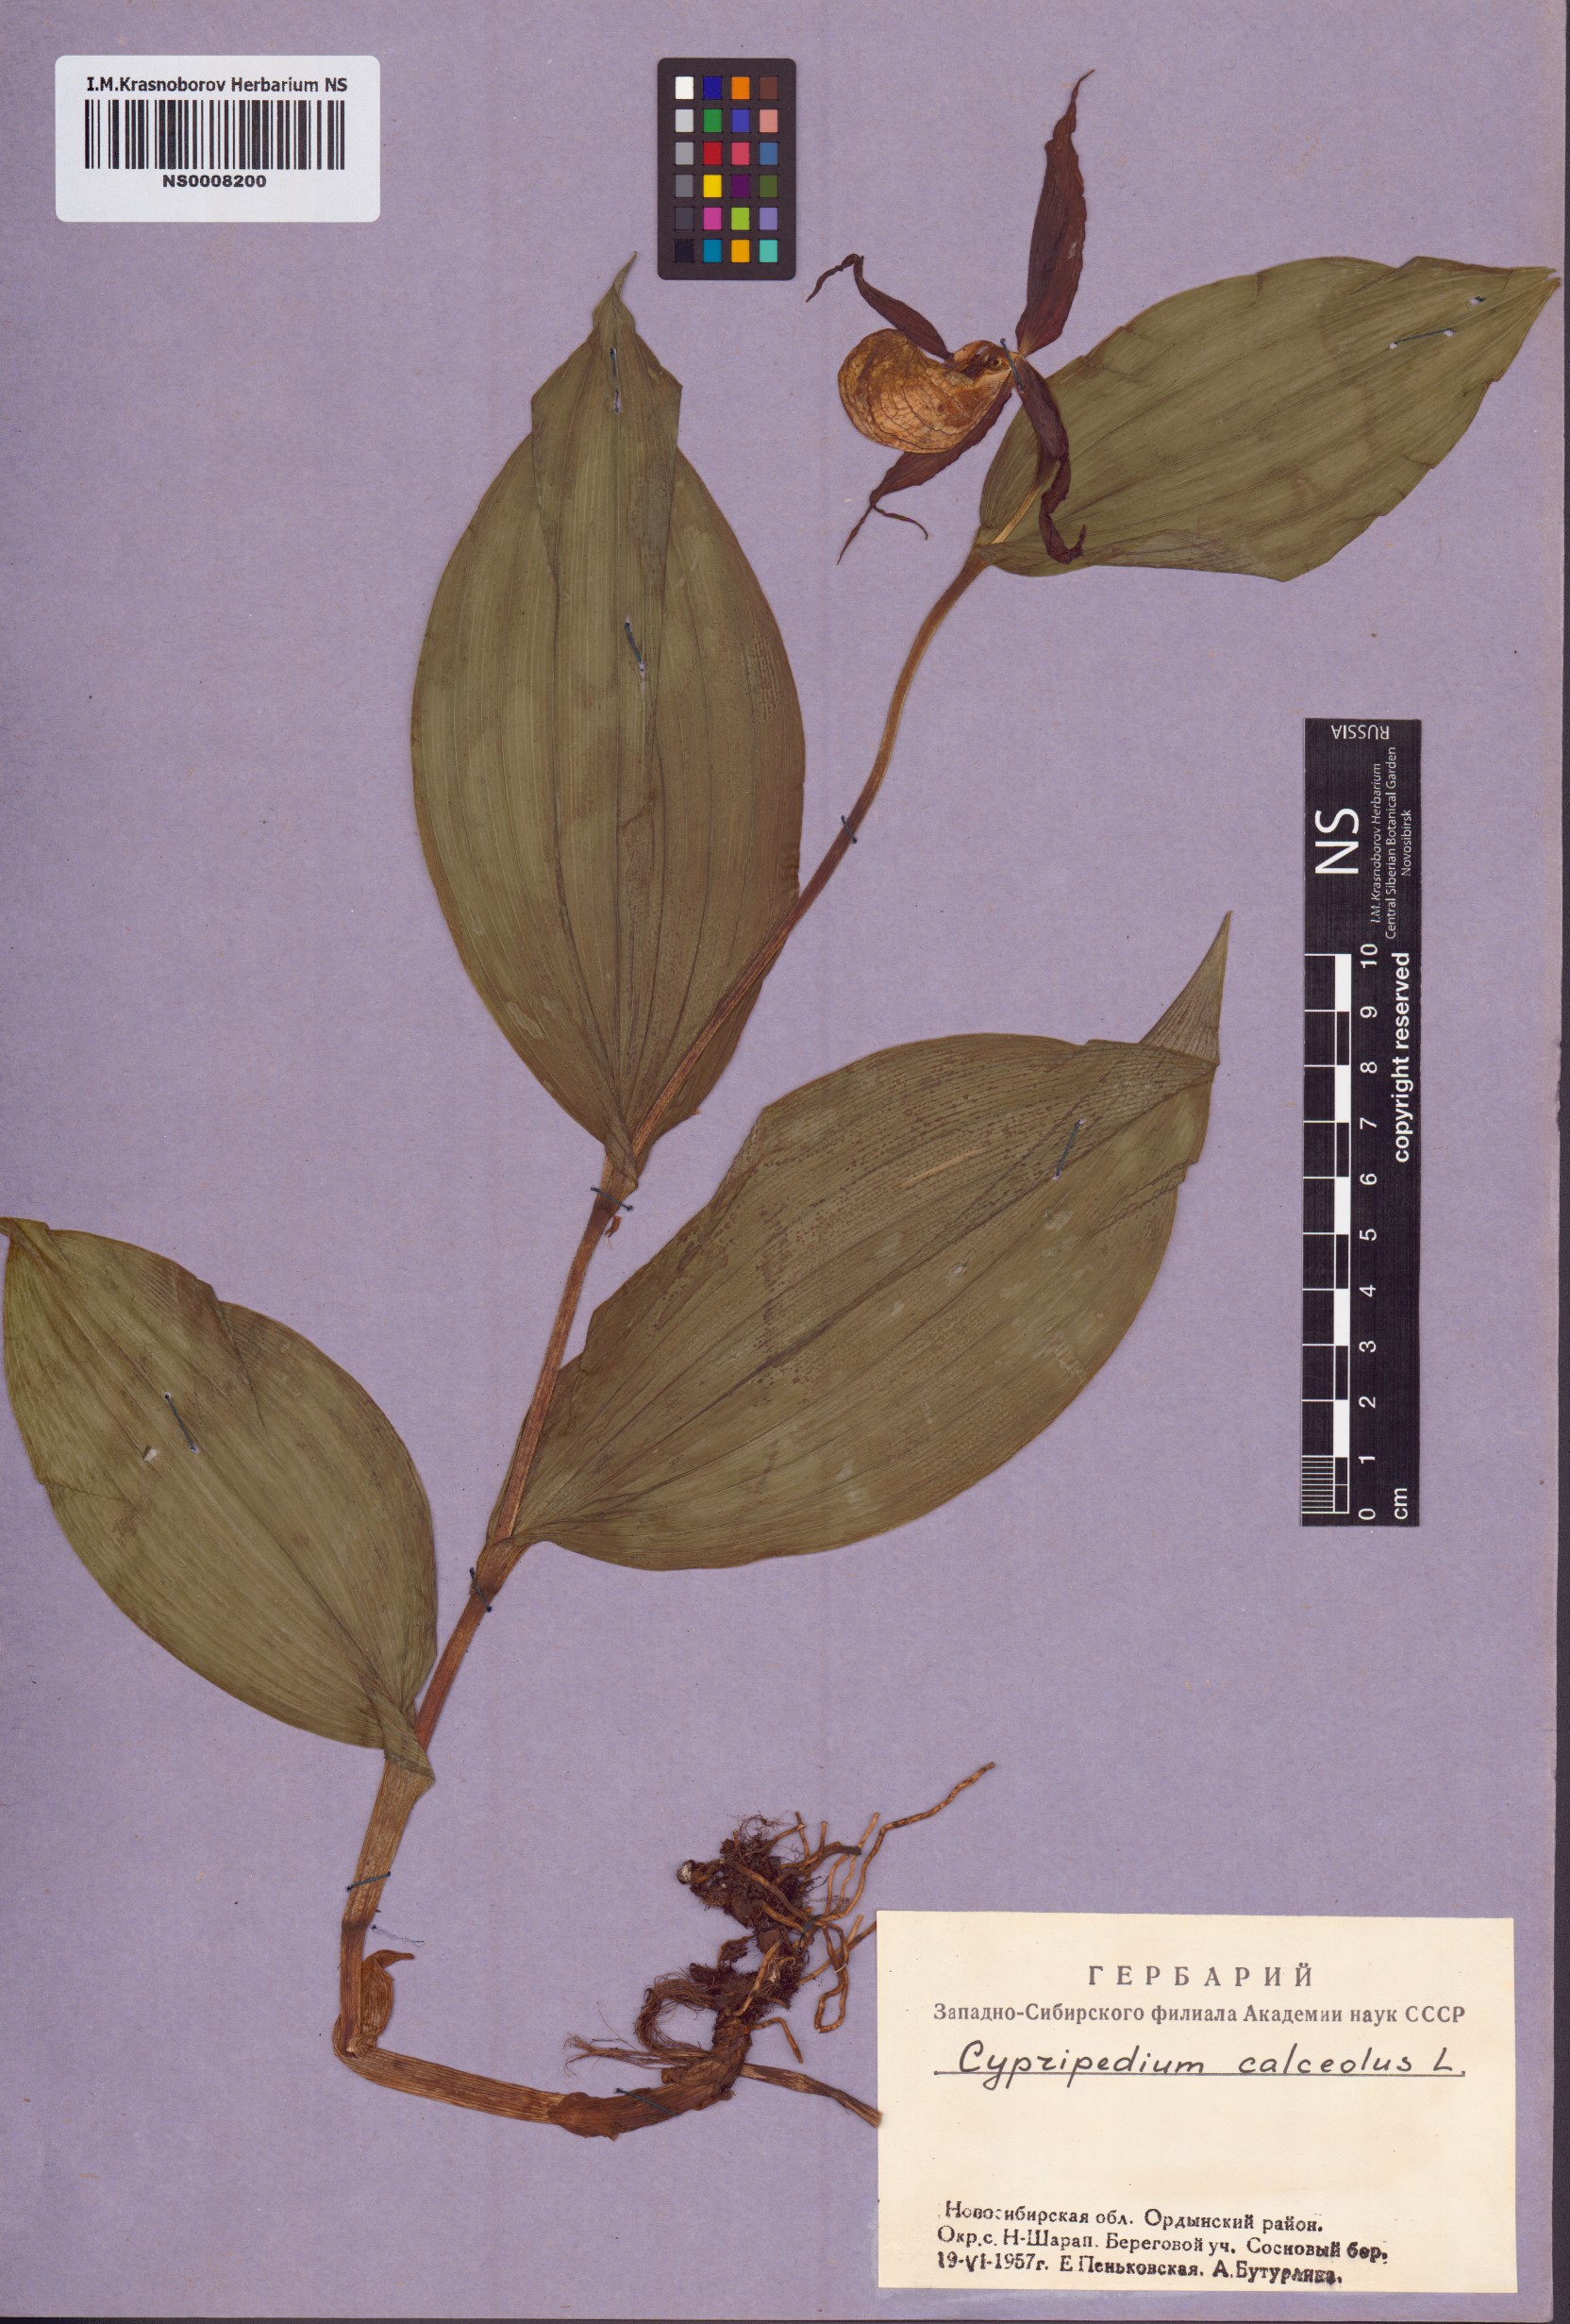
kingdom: Plantae
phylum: Tracheophyta
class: Liliopsida
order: Asparagales
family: Orchidaceae
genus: Cypripedium
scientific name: Cypripedium calceolus
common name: Lady's-slipper
